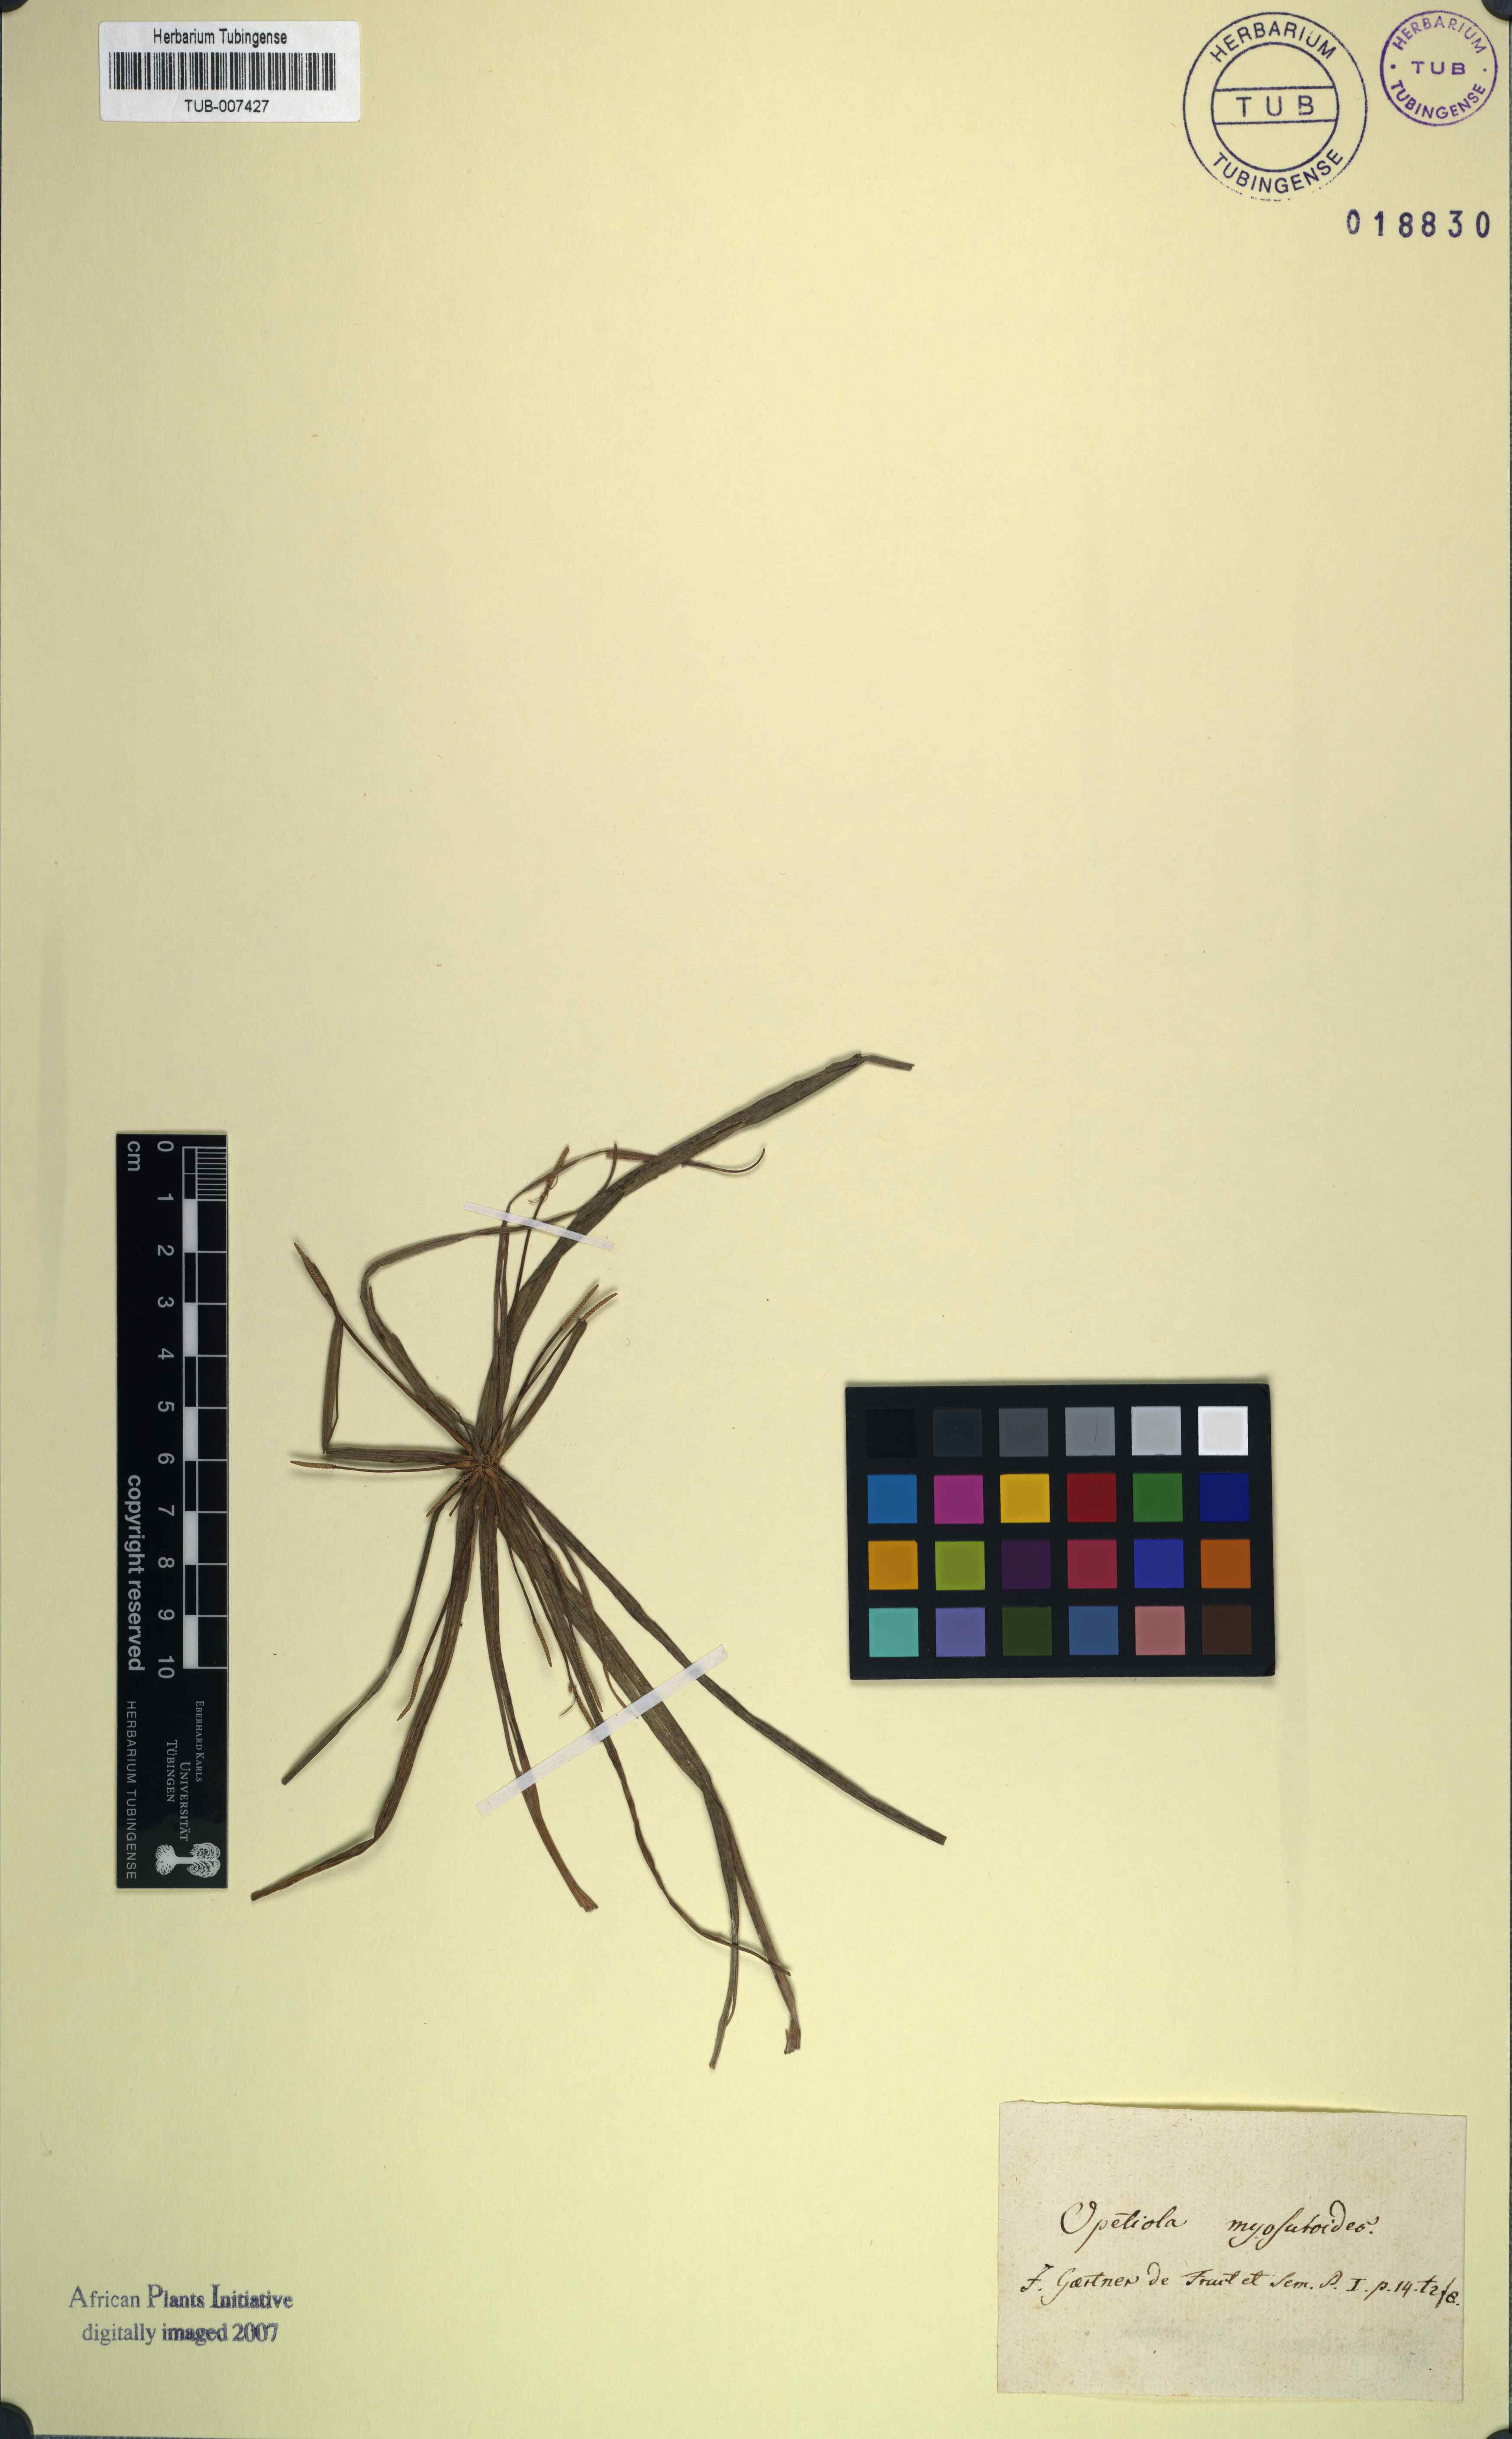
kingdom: Plantae
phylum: Tracheophyta
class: Liliopsida
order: Poales
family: Cyperaceae
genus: Cyperus
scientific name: Cyperus cyperoides
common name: Pacific island flat sedge
